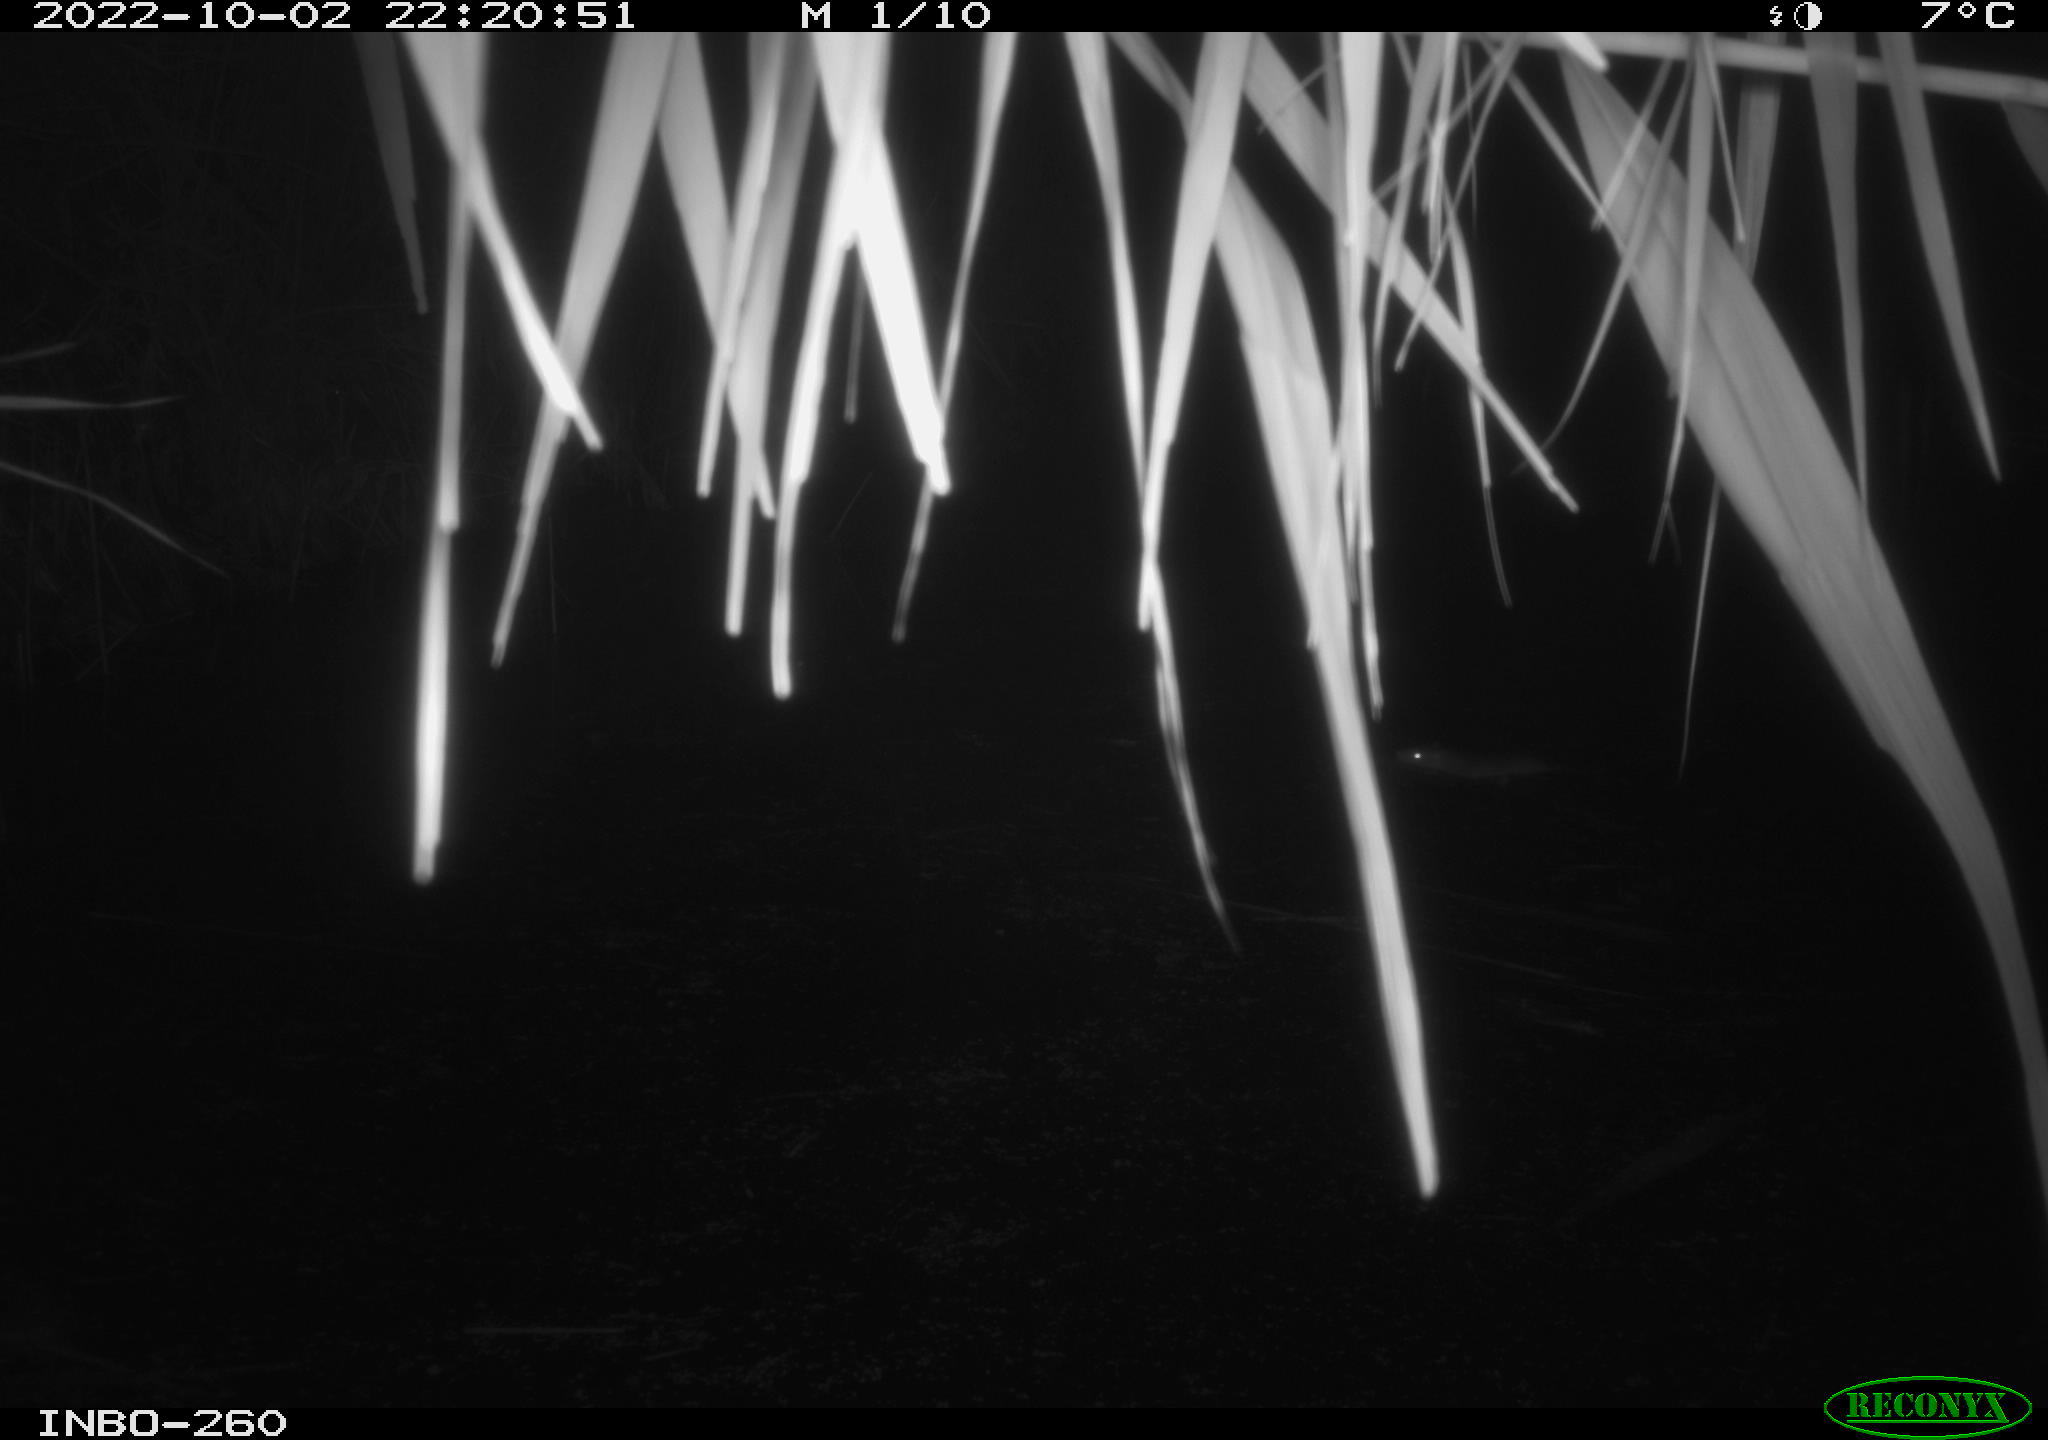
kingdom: Animalia
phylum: Chordata
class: Mammalia
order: Rodentia
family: Muridae
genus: Rattus
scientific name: Rattus norvegicus
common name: Brown rat
